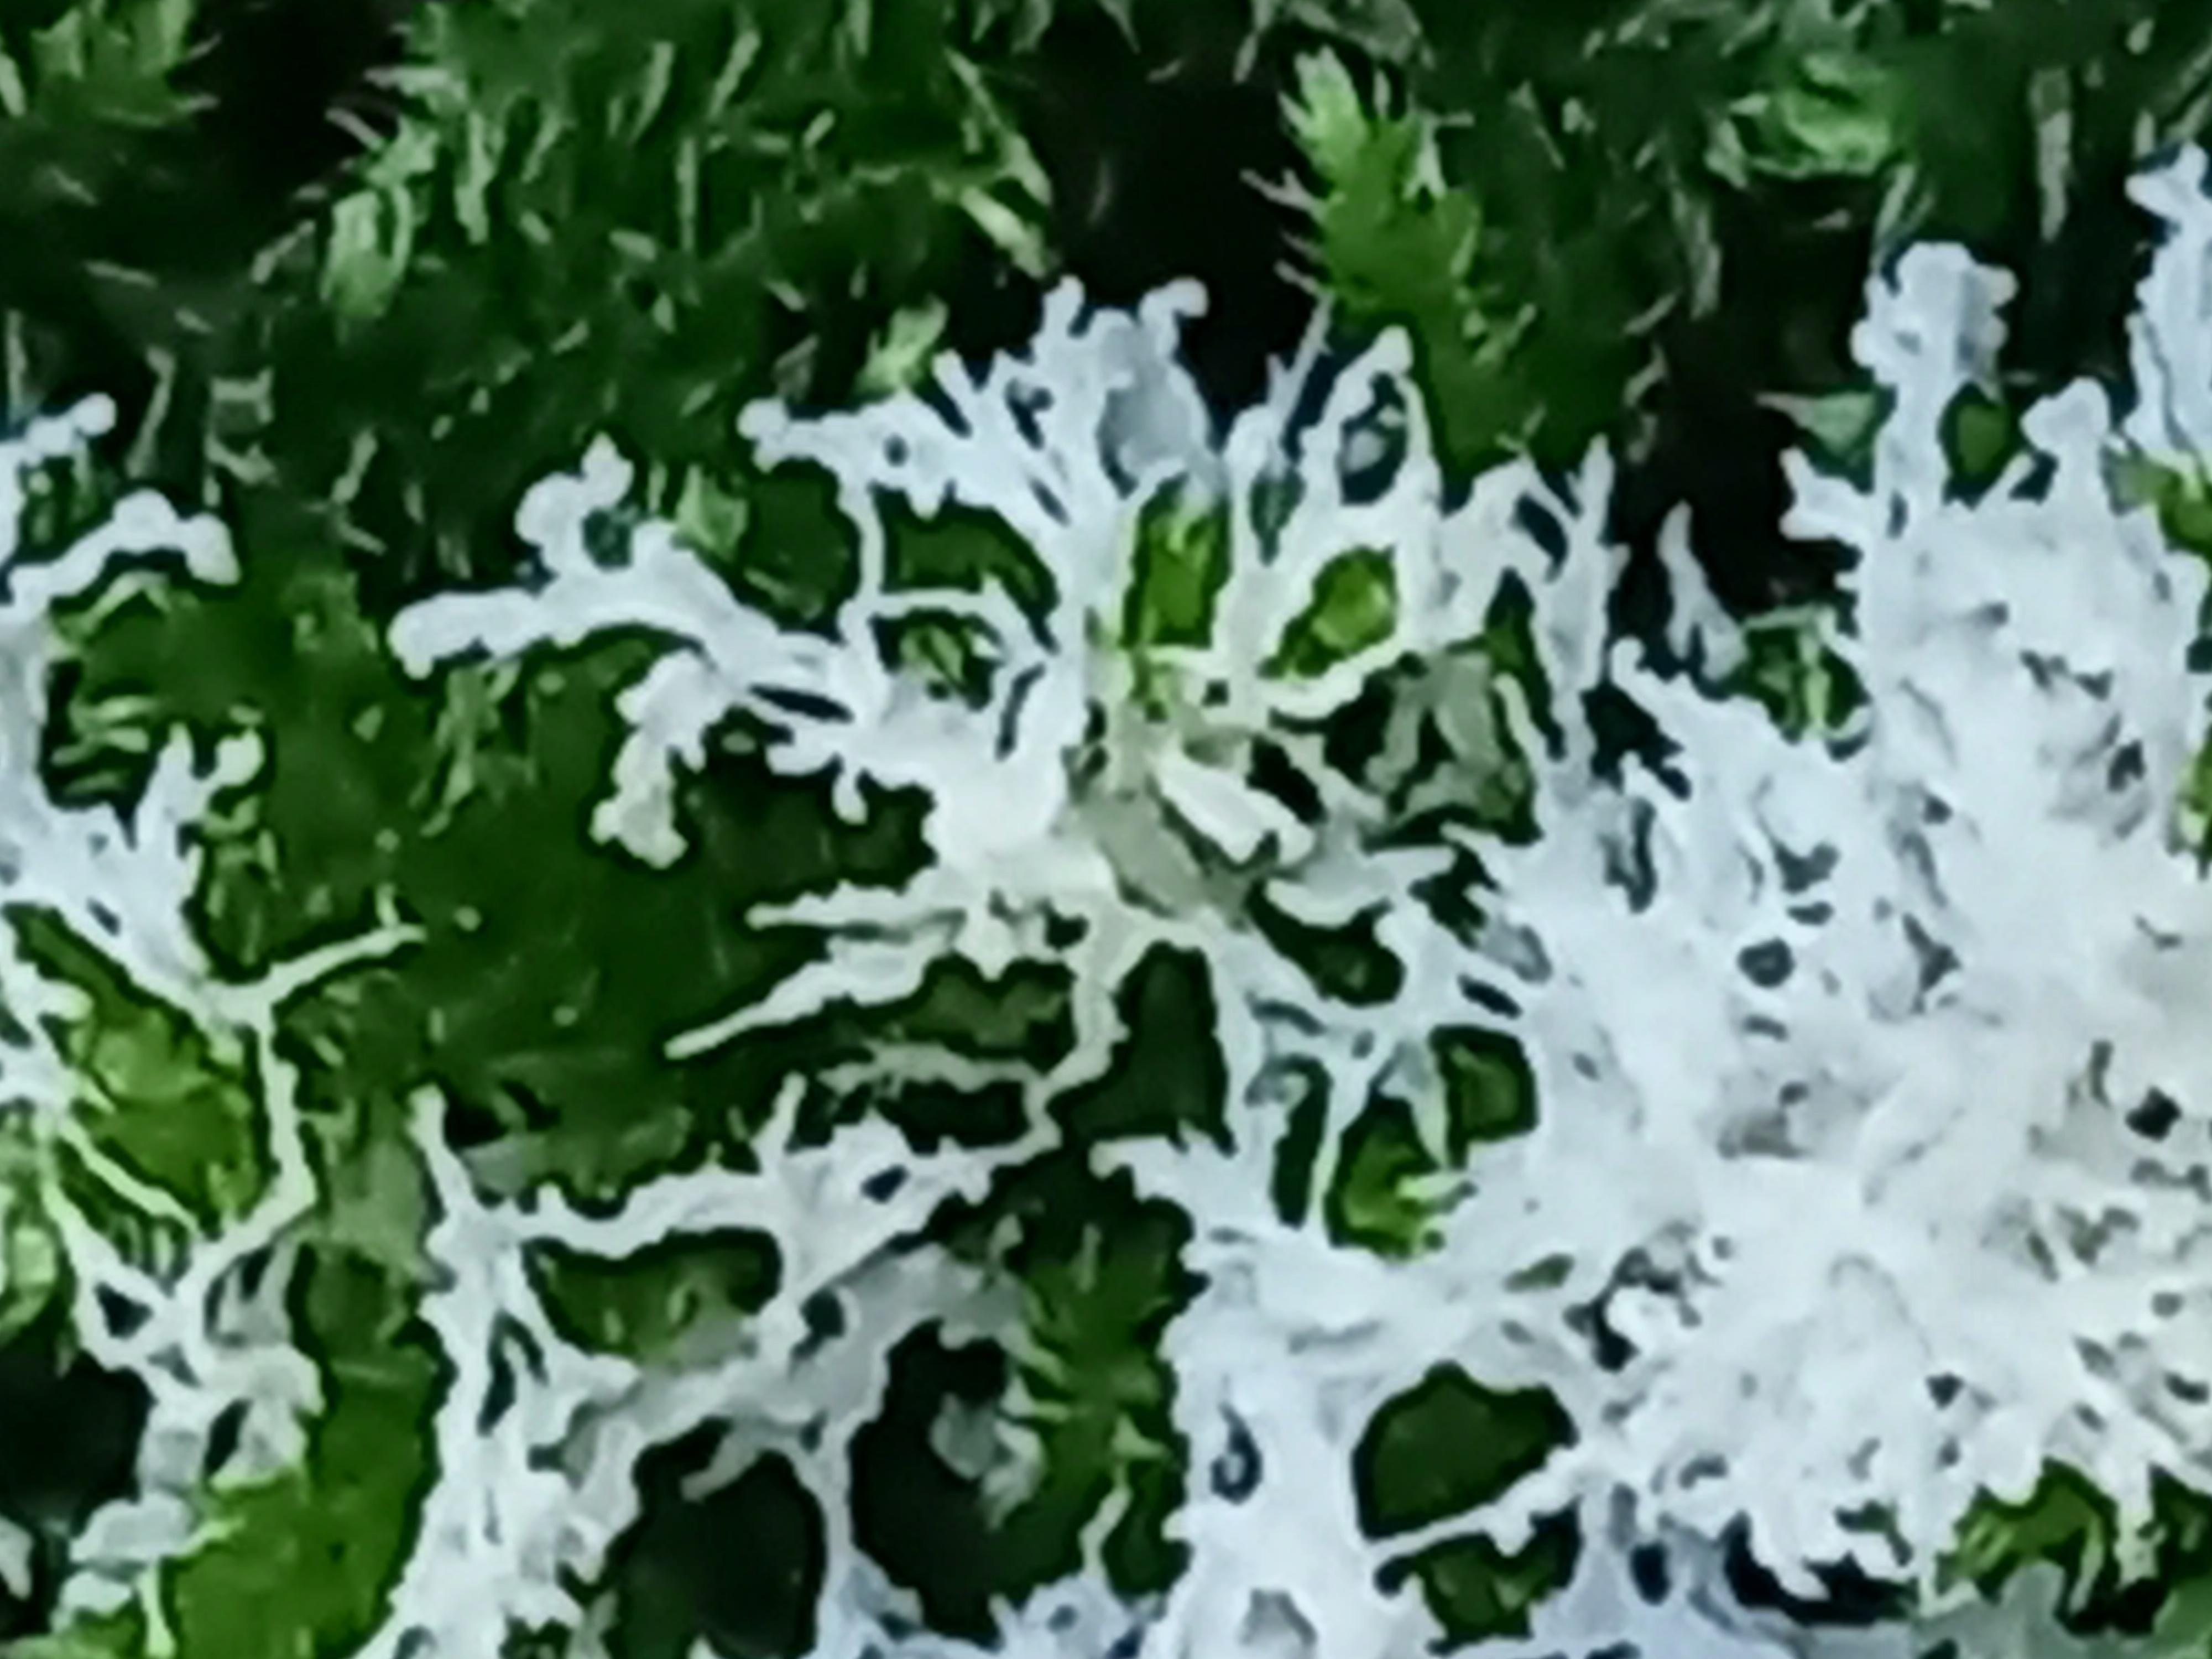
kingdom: Protozoa
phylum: Mycetozoa
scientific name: Mycetozoa
